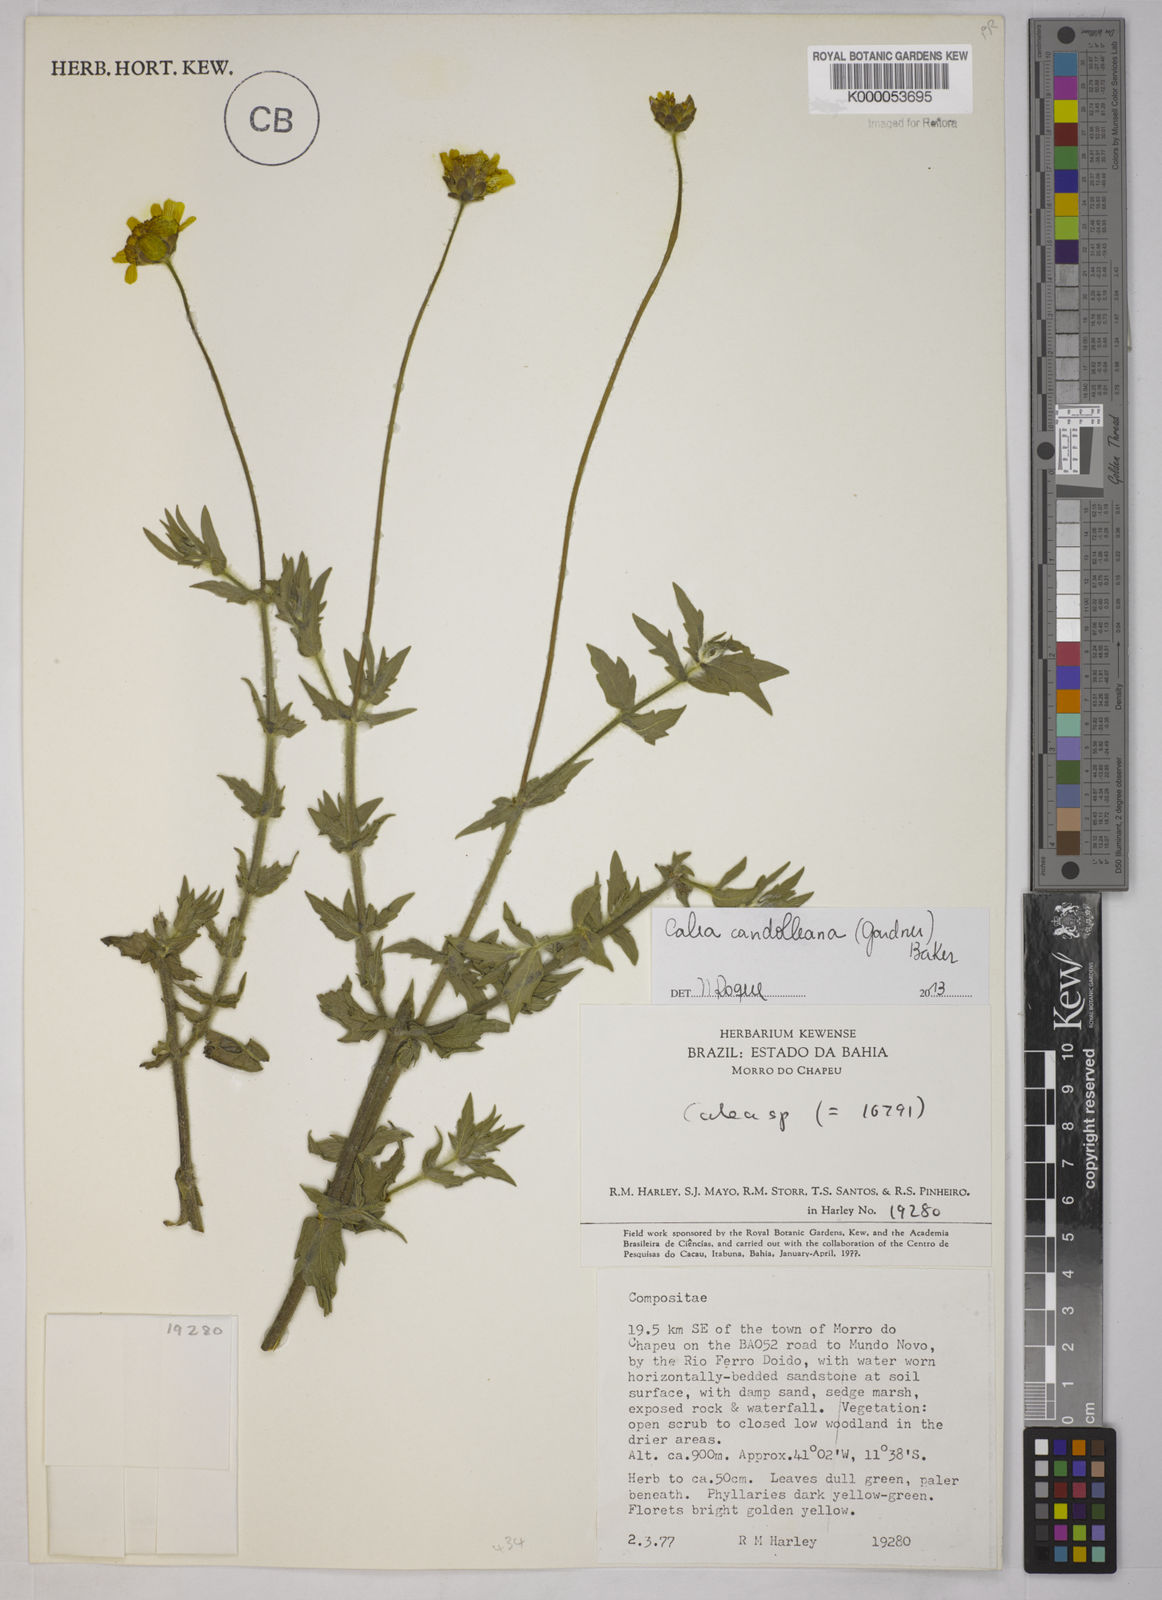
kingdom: Plantae
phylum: Tracheophyta
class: Magnoliopsida
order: Asterales
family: Asteraceae
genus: Calea
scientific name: Calea pilosa
